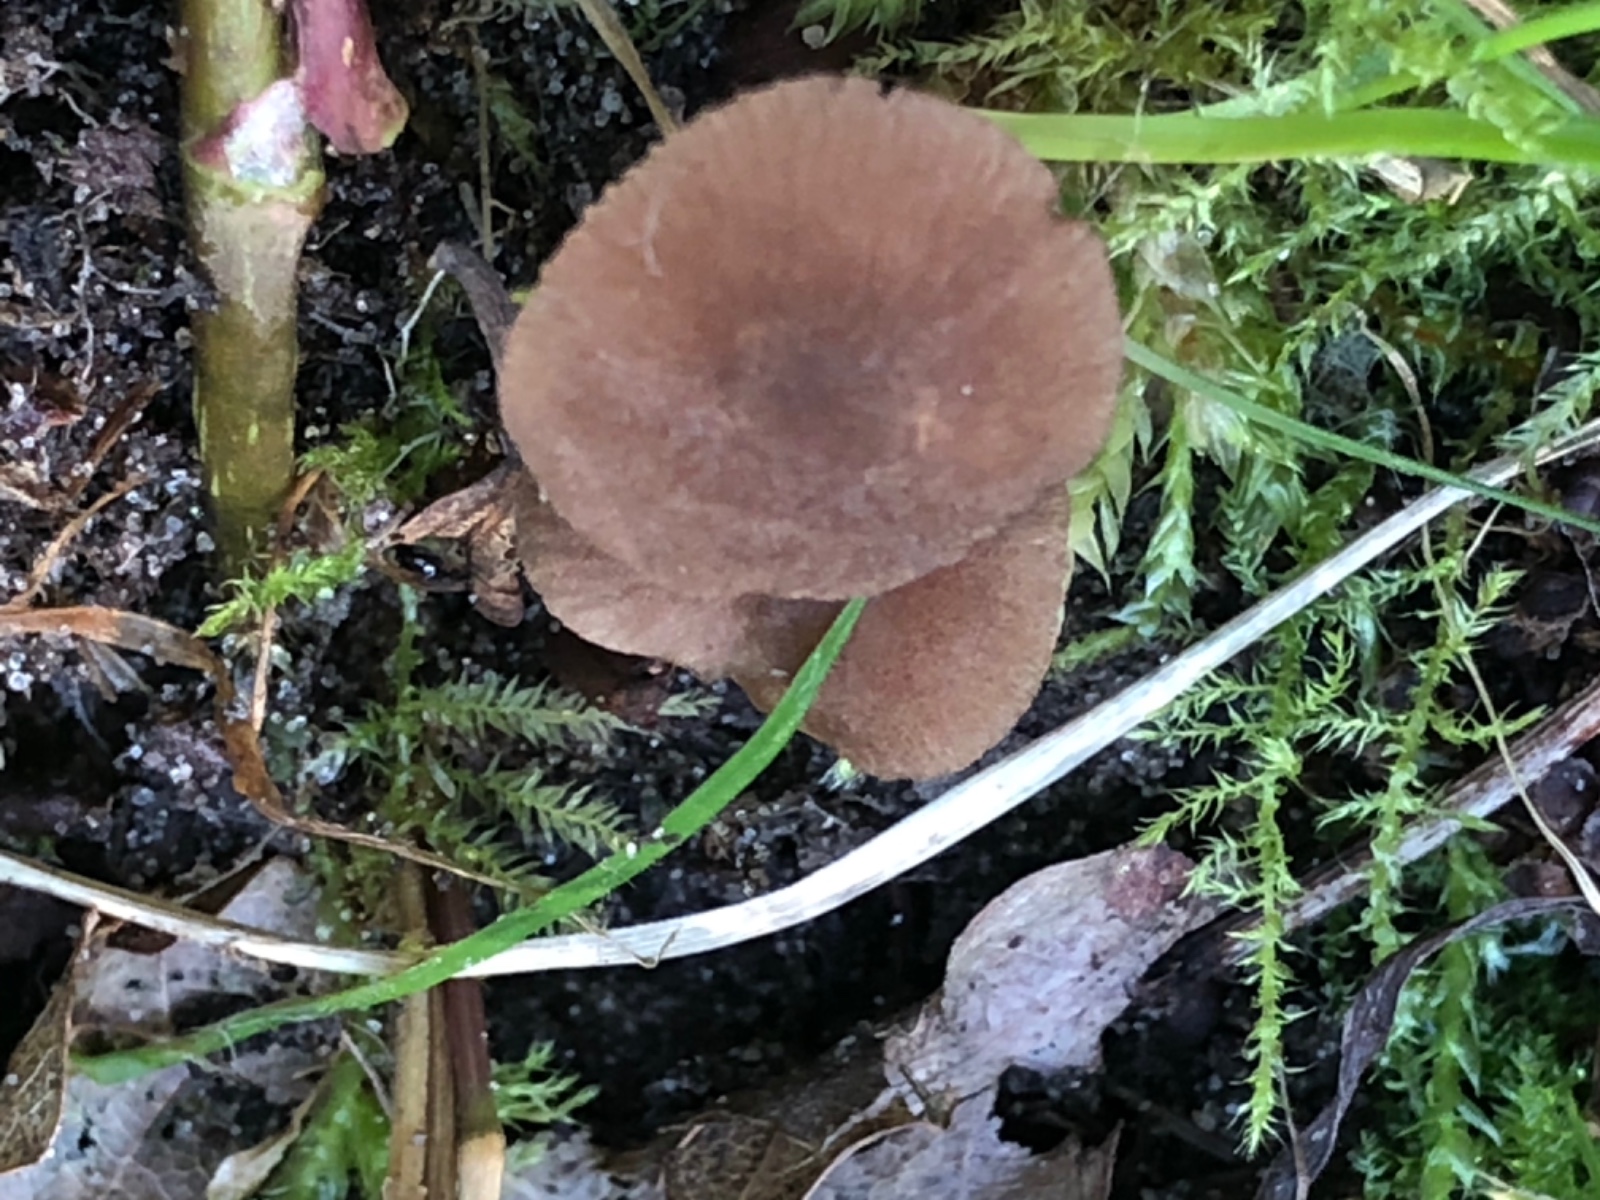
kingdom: Fungi
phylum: Basidiomycota
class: Agaricomycetes
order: Agaricales
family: Pluteaceae
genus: Pluteus
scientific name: Pluteus
